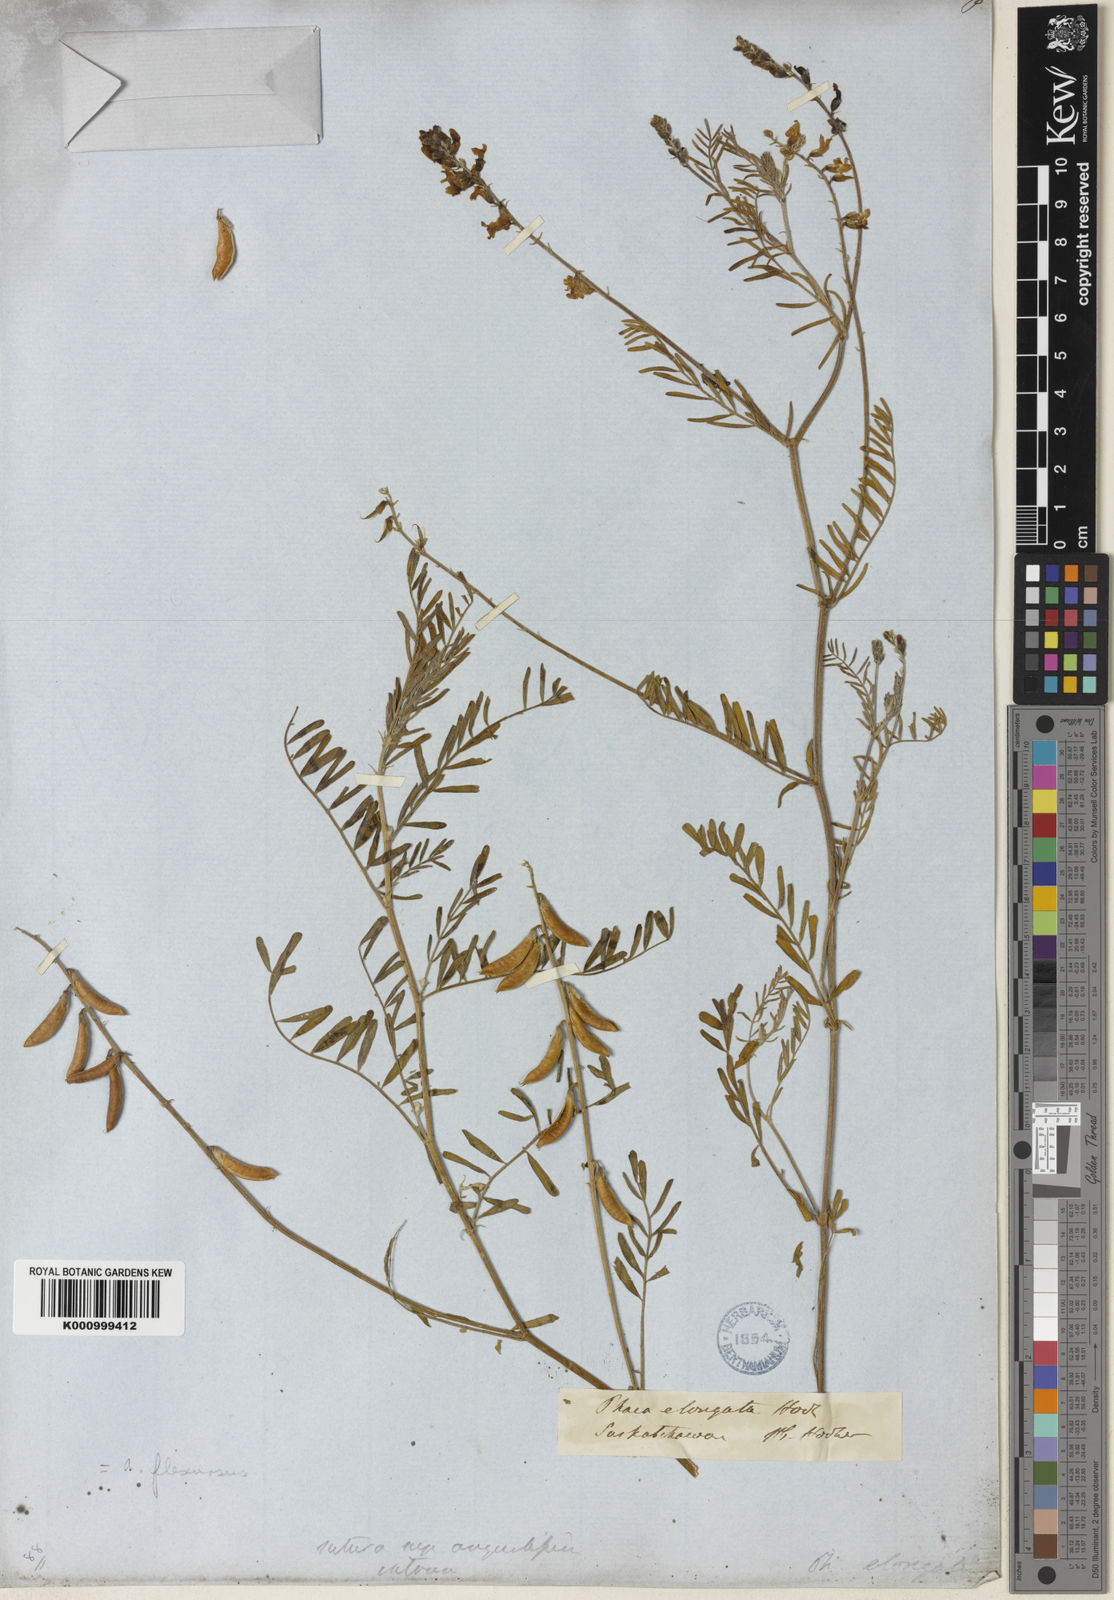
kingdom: Plantae
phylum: Tracheophyta
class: Magnoliopsida
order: Fabales
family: Fabaceae
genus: Astragalus
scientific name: Astragalus flexuosus
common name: Pliant milk-vetch
